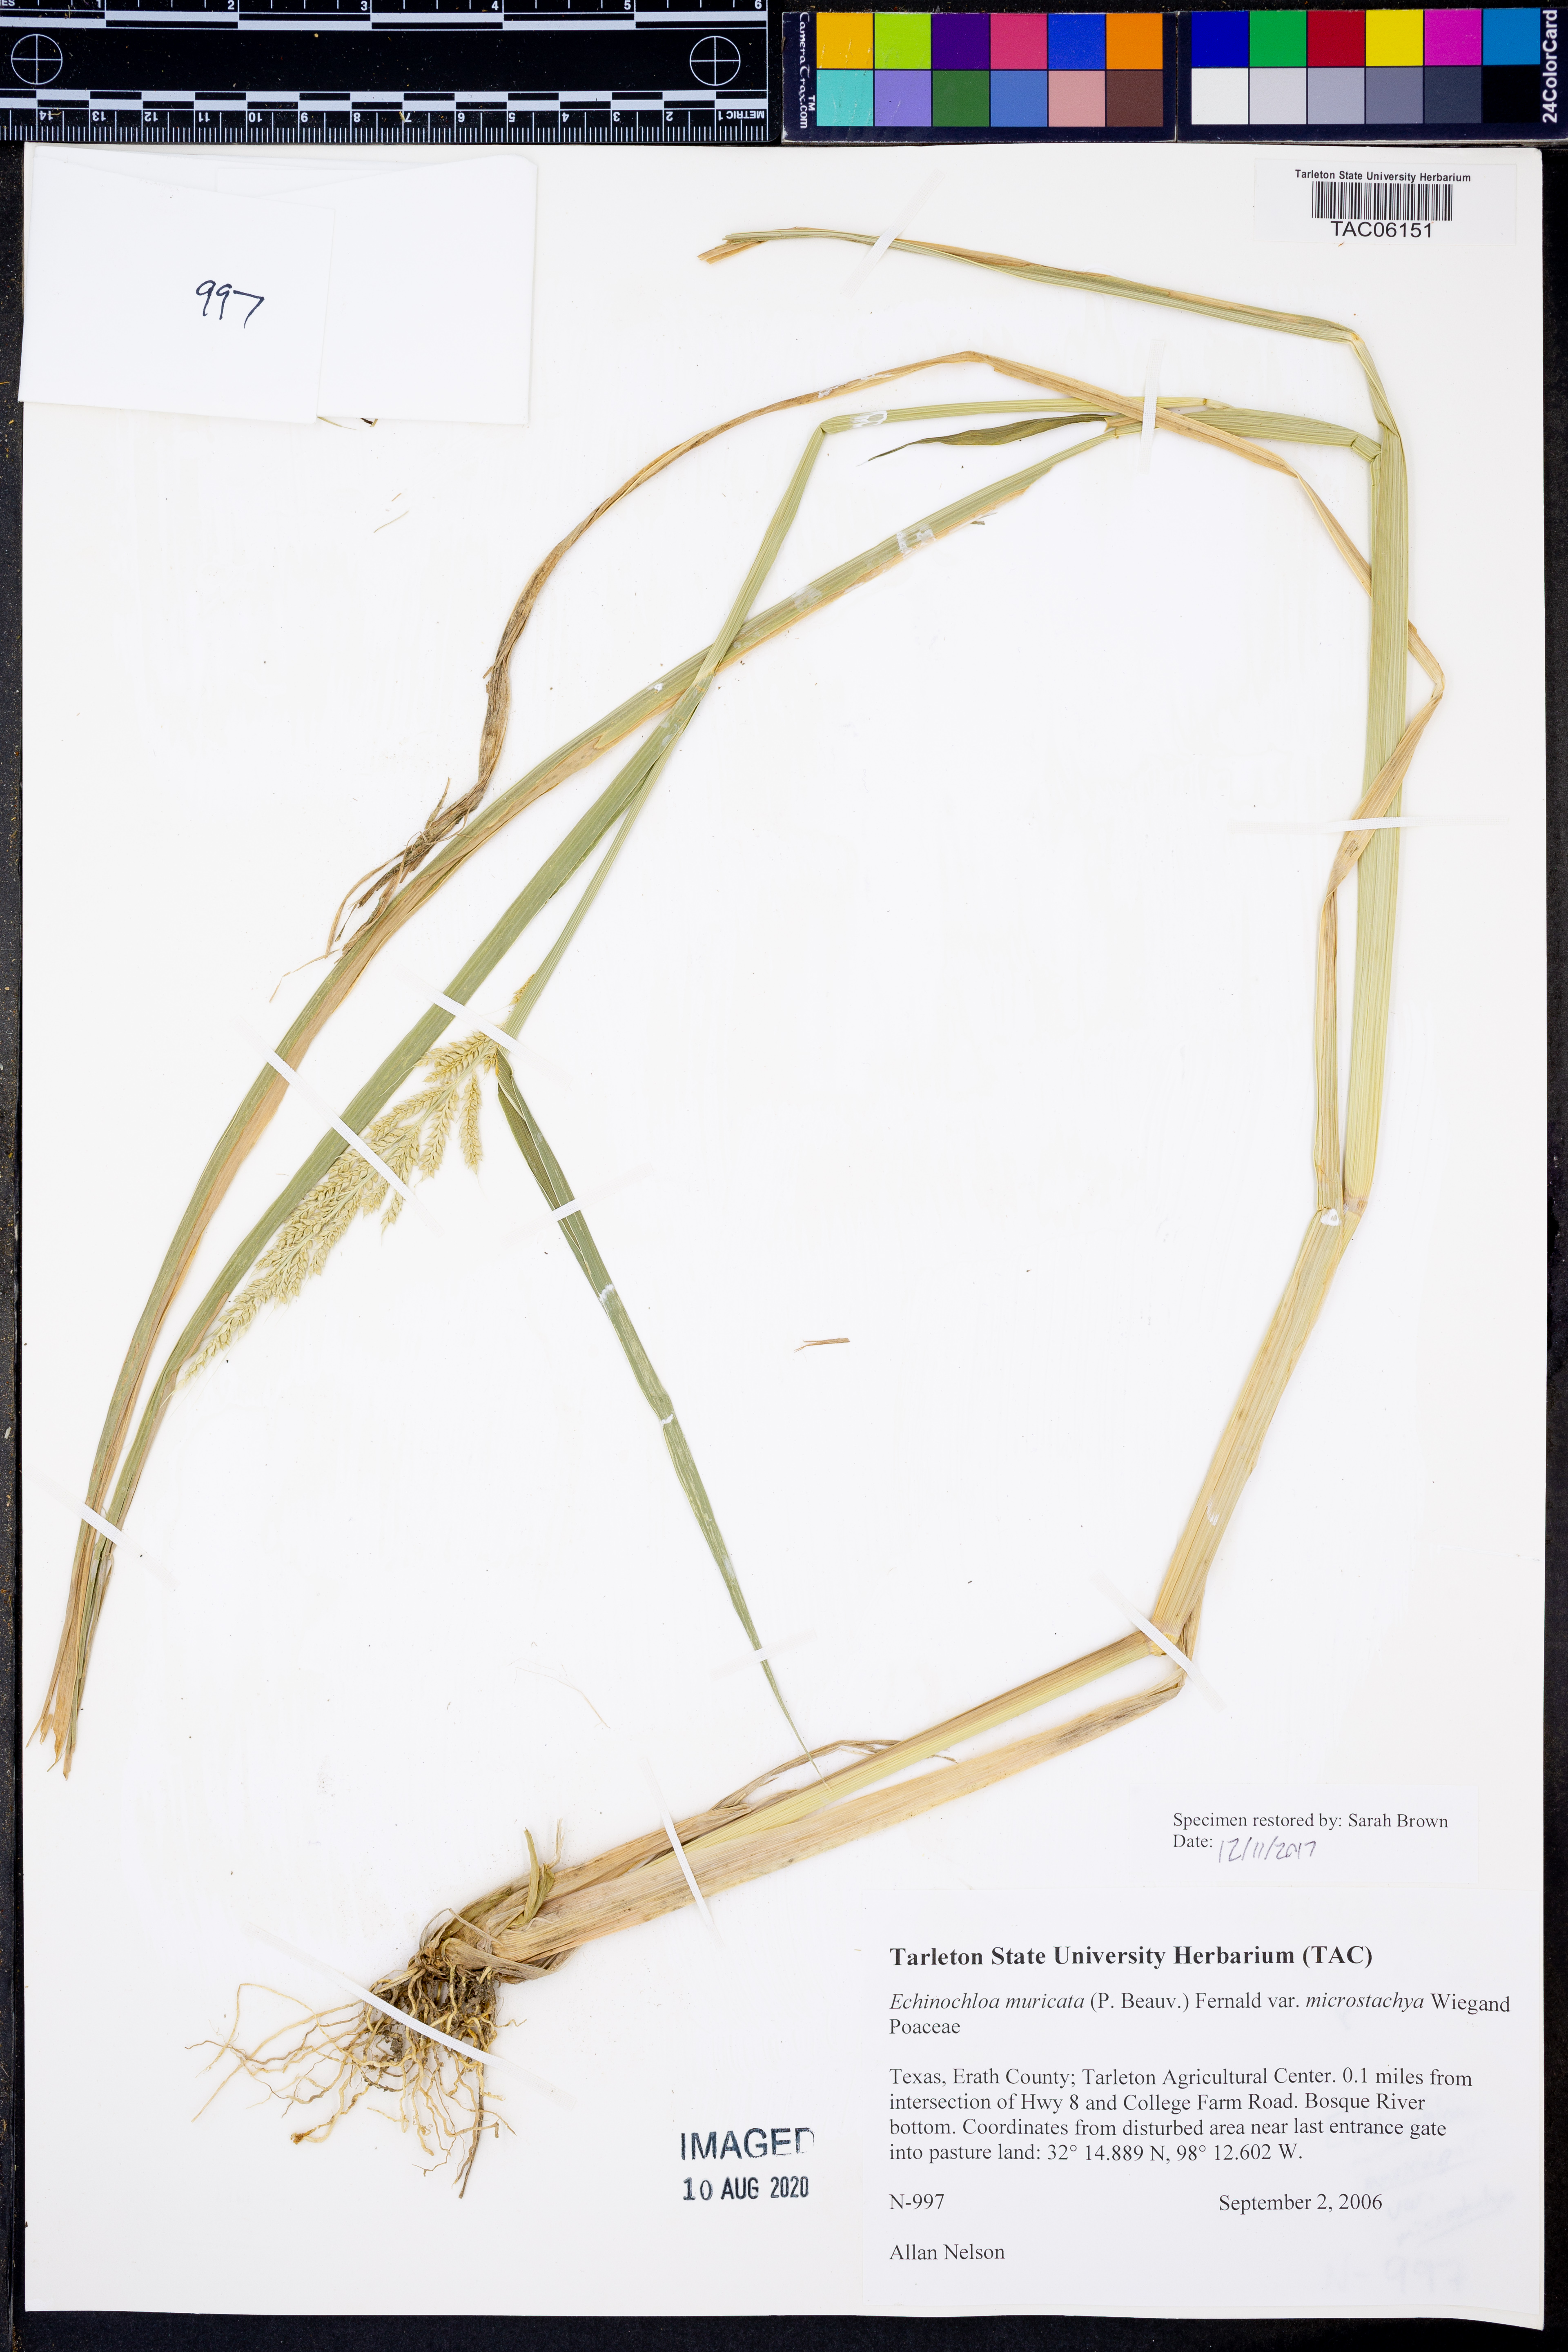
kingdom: Plantae
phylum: Tracheophyta
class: Liliopsida
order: Poales
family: Poaceae
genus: Echinochloa
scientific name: Echinochloa muricata
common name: American barnyard grass
